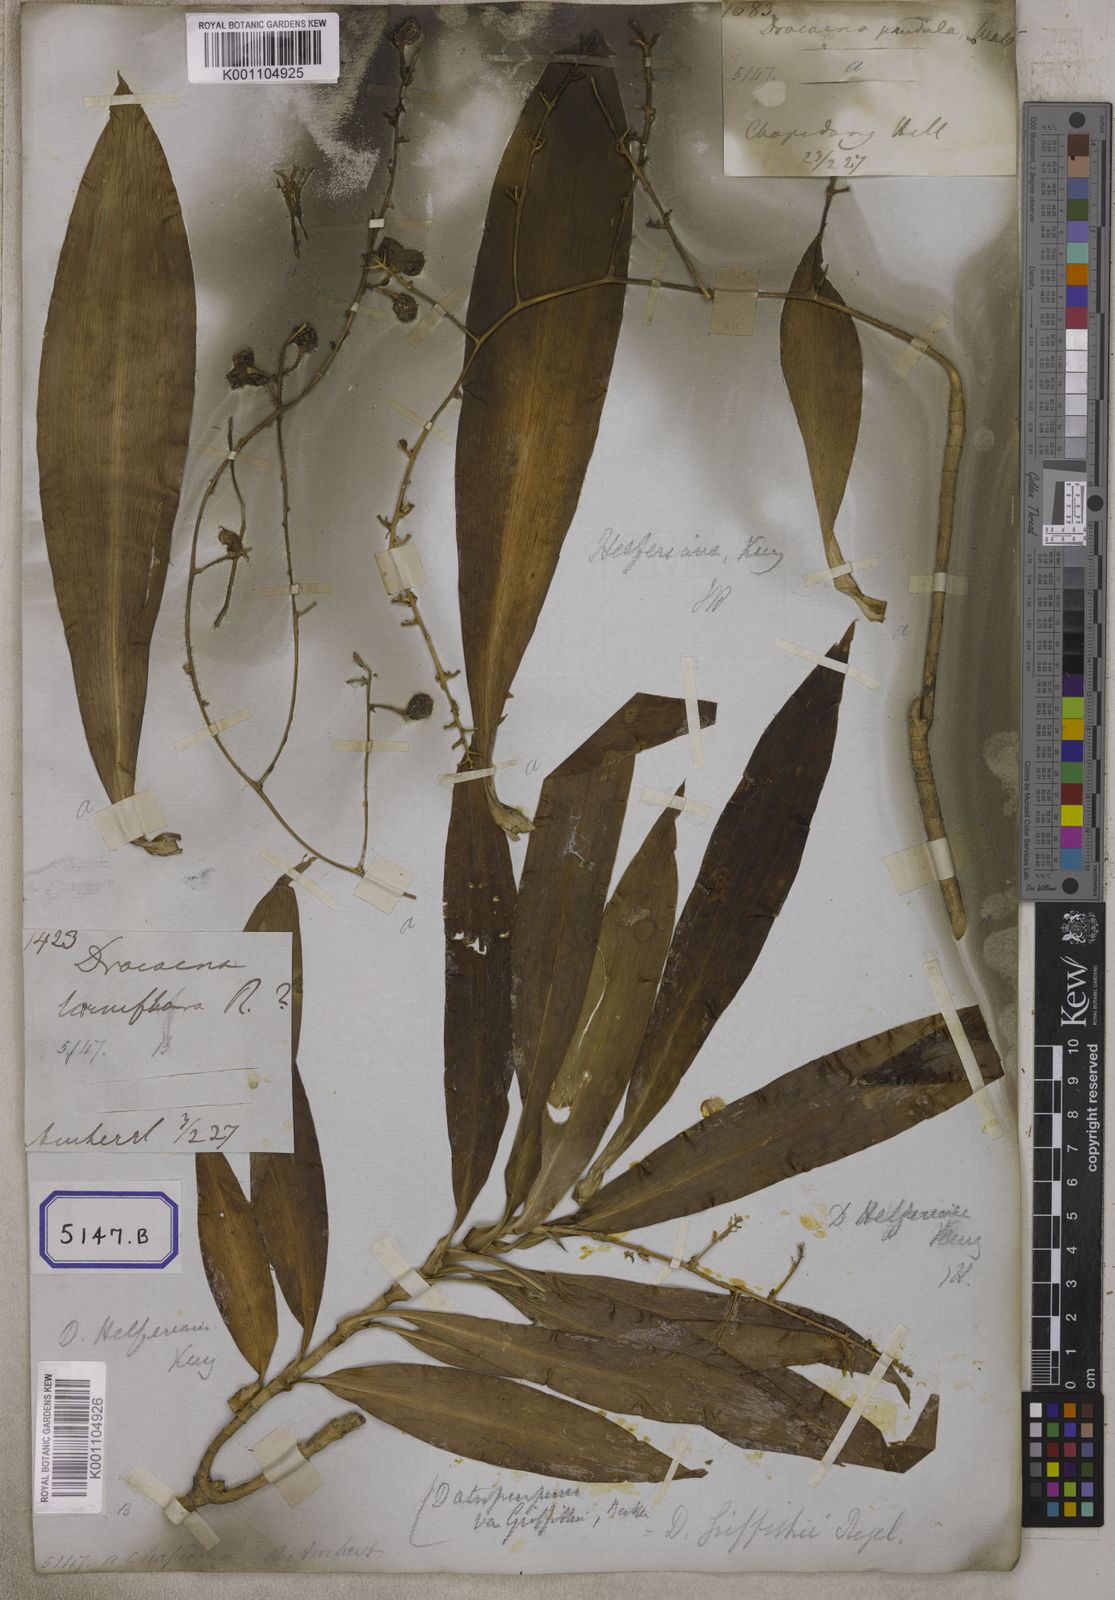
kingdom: Plantae
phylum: Tracheophyta
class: Liliopsida
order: Asparagales
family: Asparagaceae
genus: Dracaena
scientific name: Dracaena elliptica
